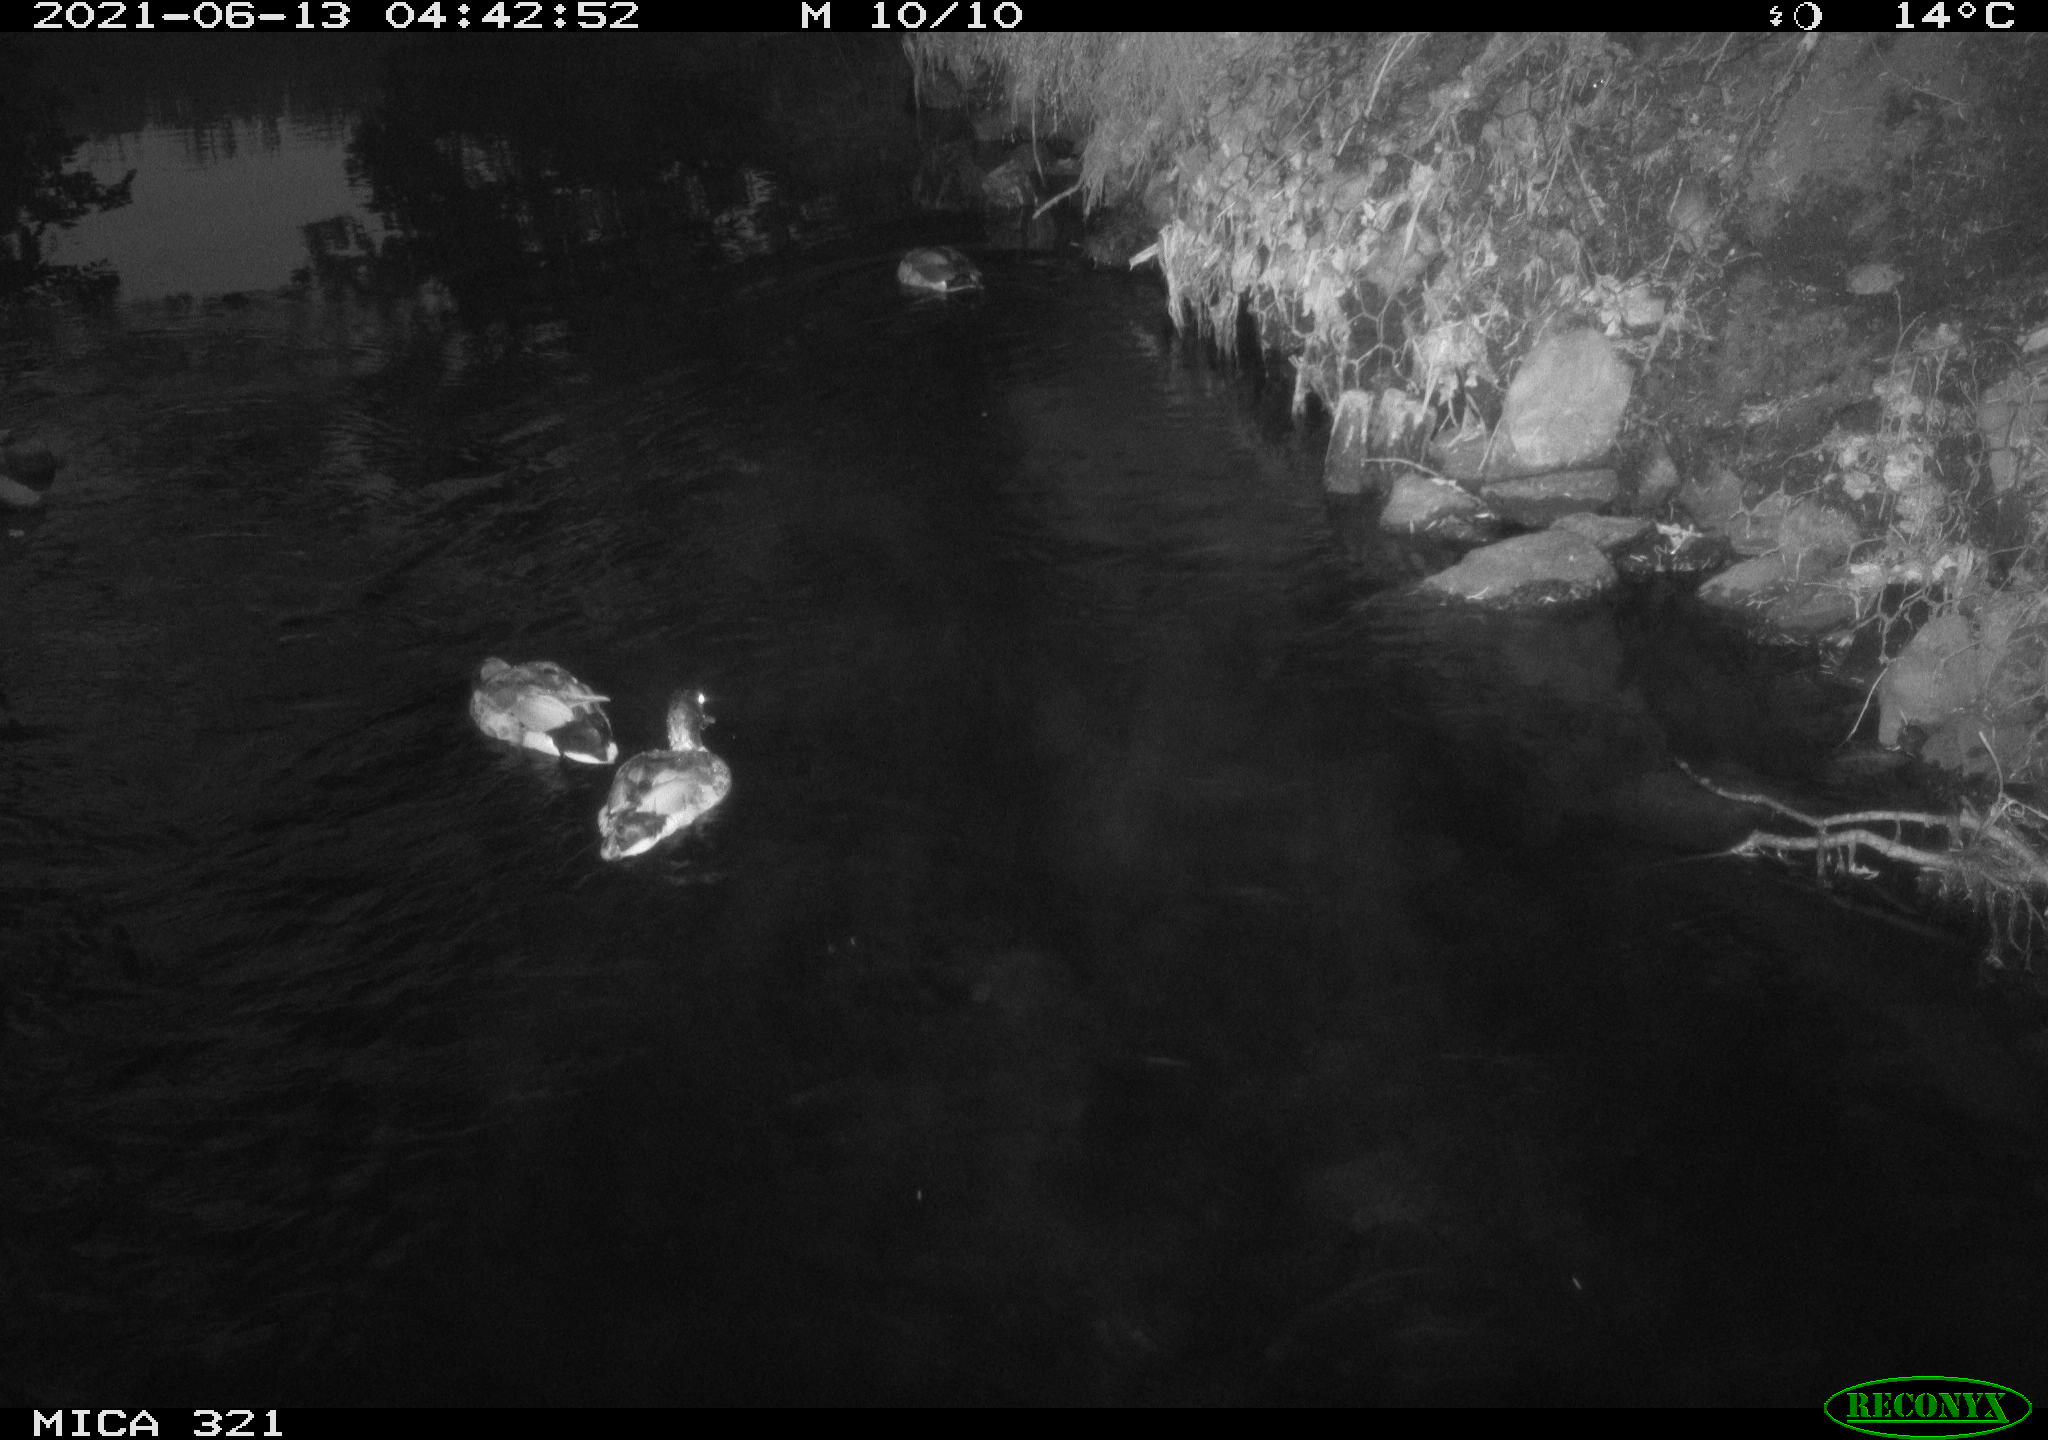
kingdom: Animalia
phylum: Chordata
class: Aves
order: Anseriformes
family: Anatidae
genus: Anas
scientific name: Anas platyrhynchos
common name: Mallard
